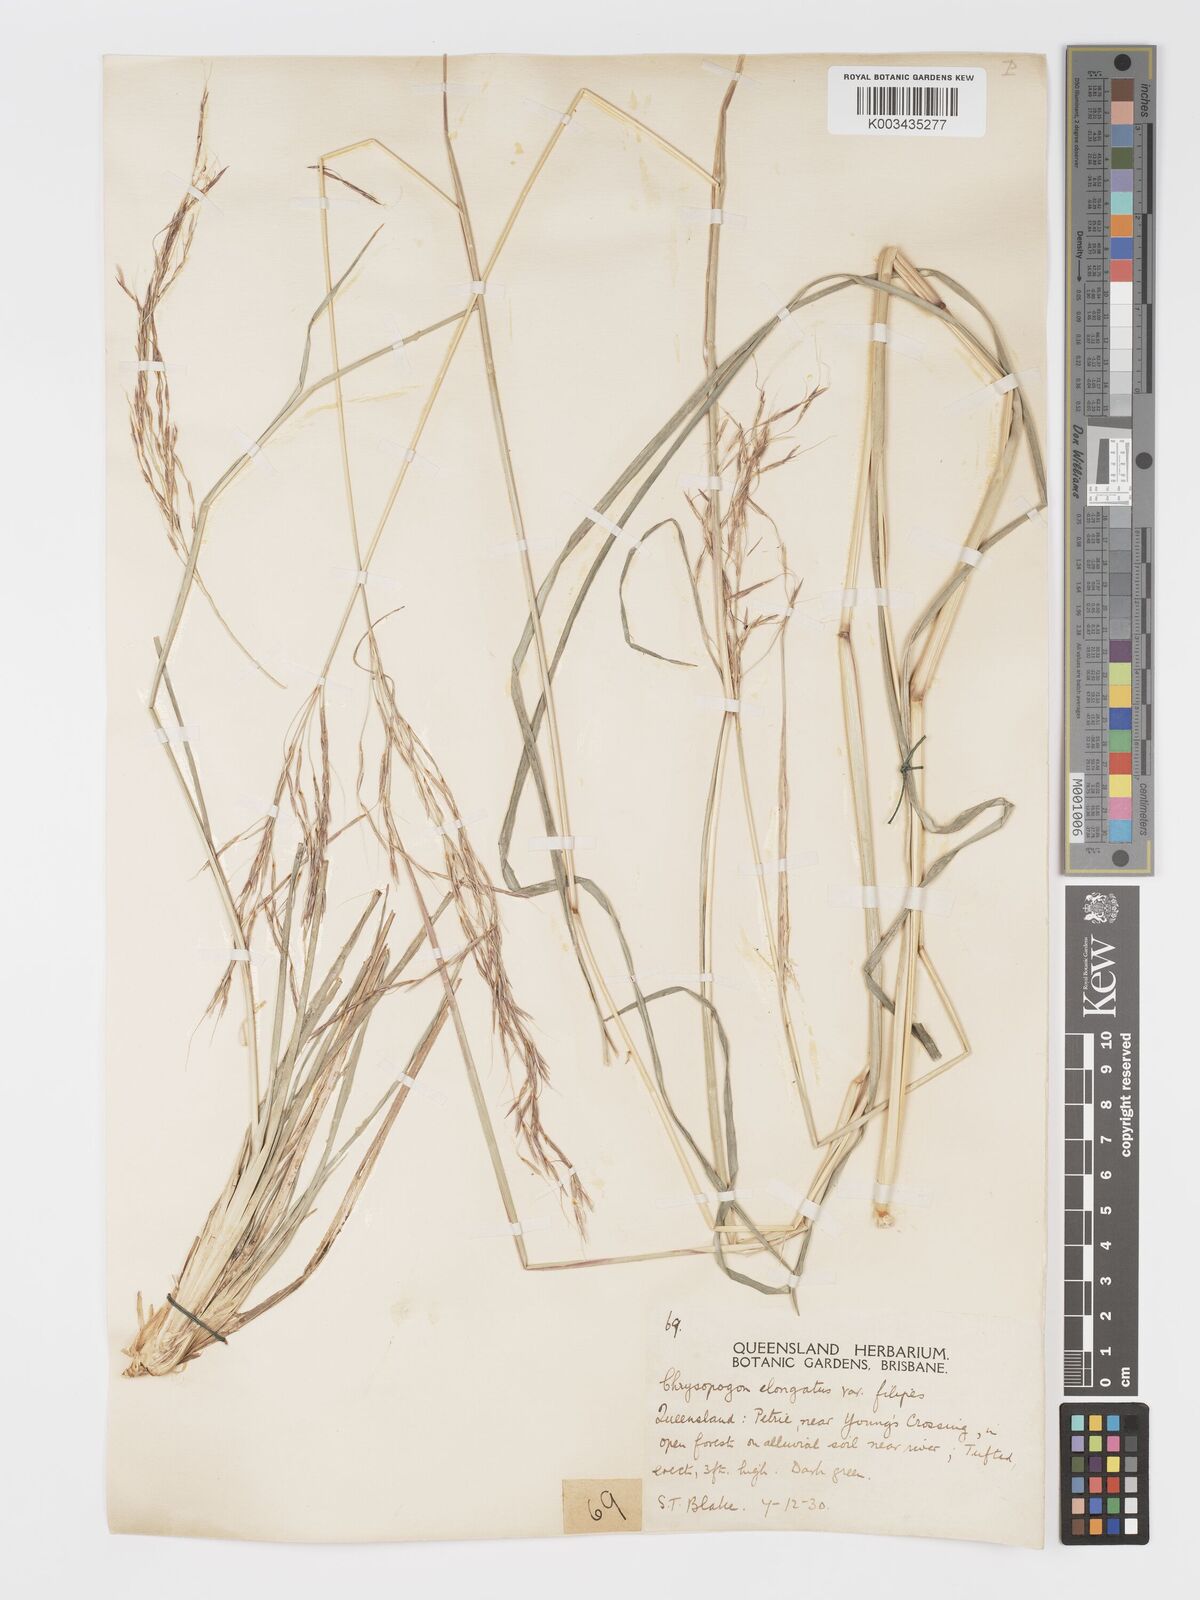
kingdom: Plantae
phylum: Tracheophyta
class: Liliopsida
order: Poales
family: Poaceae
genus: Chrysopogon
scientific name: Chrysopogon filipes
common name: Australian vetiver
